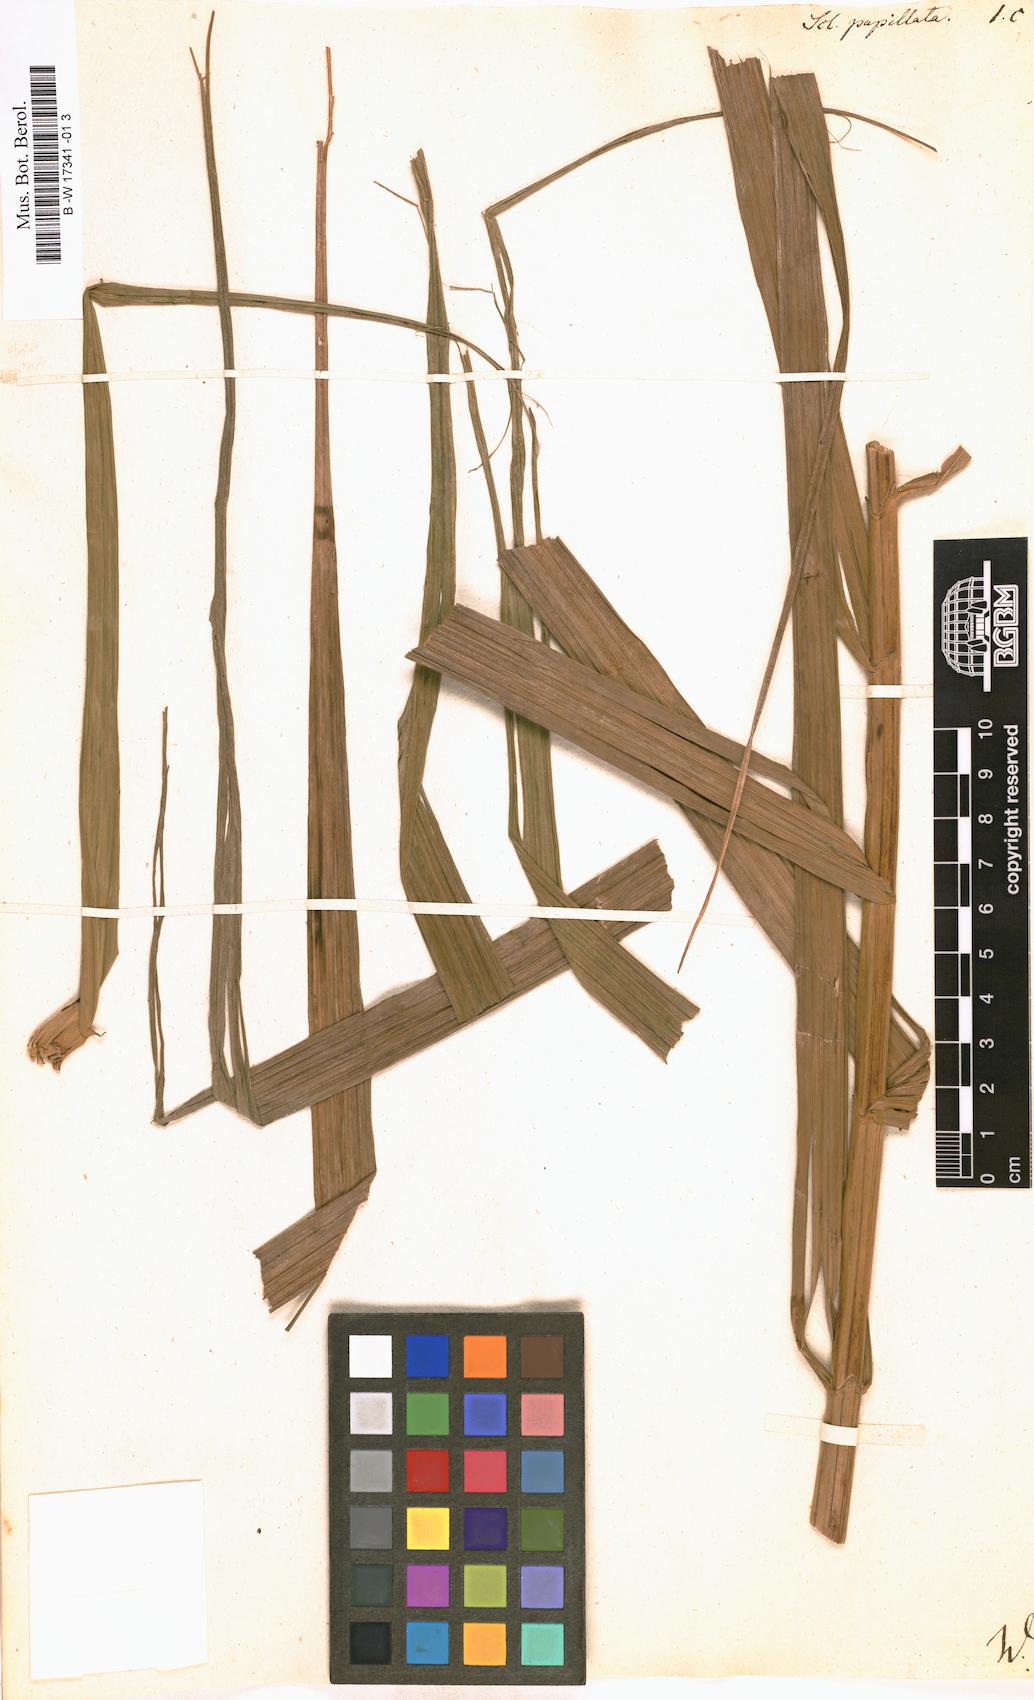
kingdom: Plantae
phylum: Tracheophyta
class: Liliopsida
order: Poales
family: Cyperaceae
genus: Scleria
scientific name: Scleria bracteata
